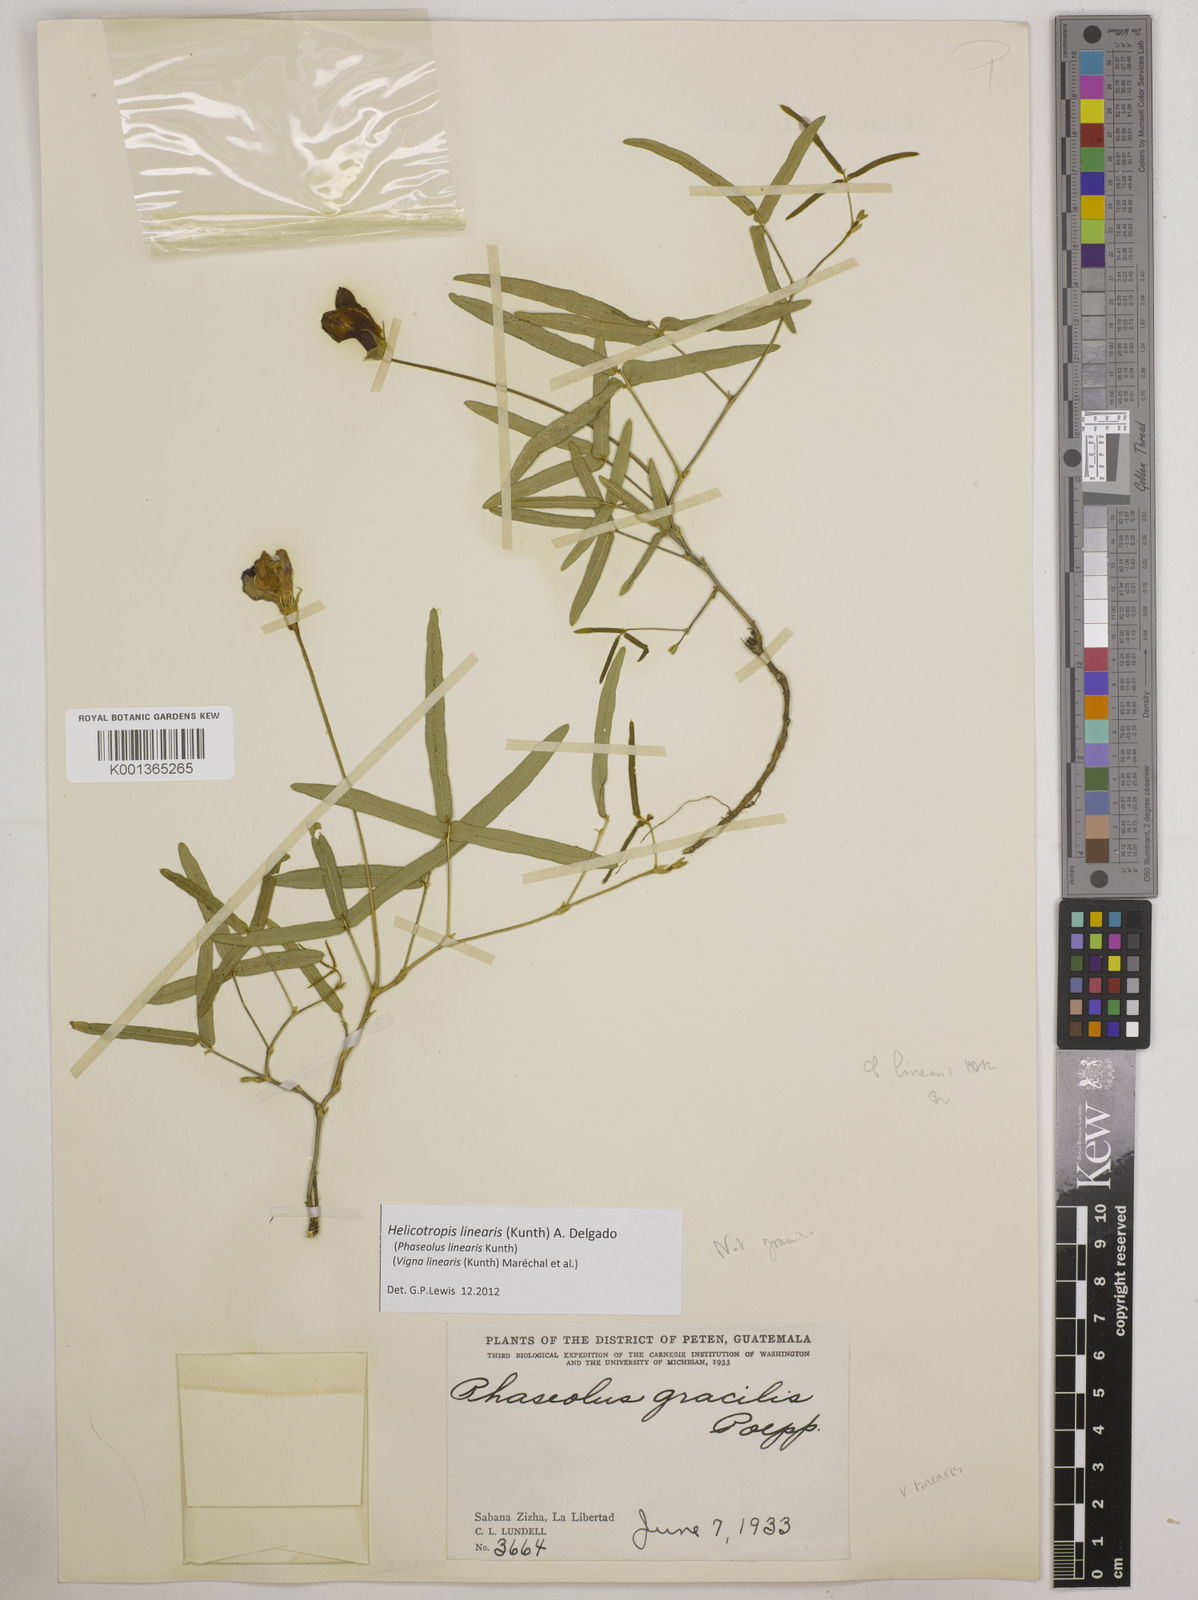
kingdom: Plantae
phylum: Tracheophyta
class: Magnoliopsida
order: Fabales
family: Fabaceae
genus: Helicotropis
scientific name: Helicotropis linearis
